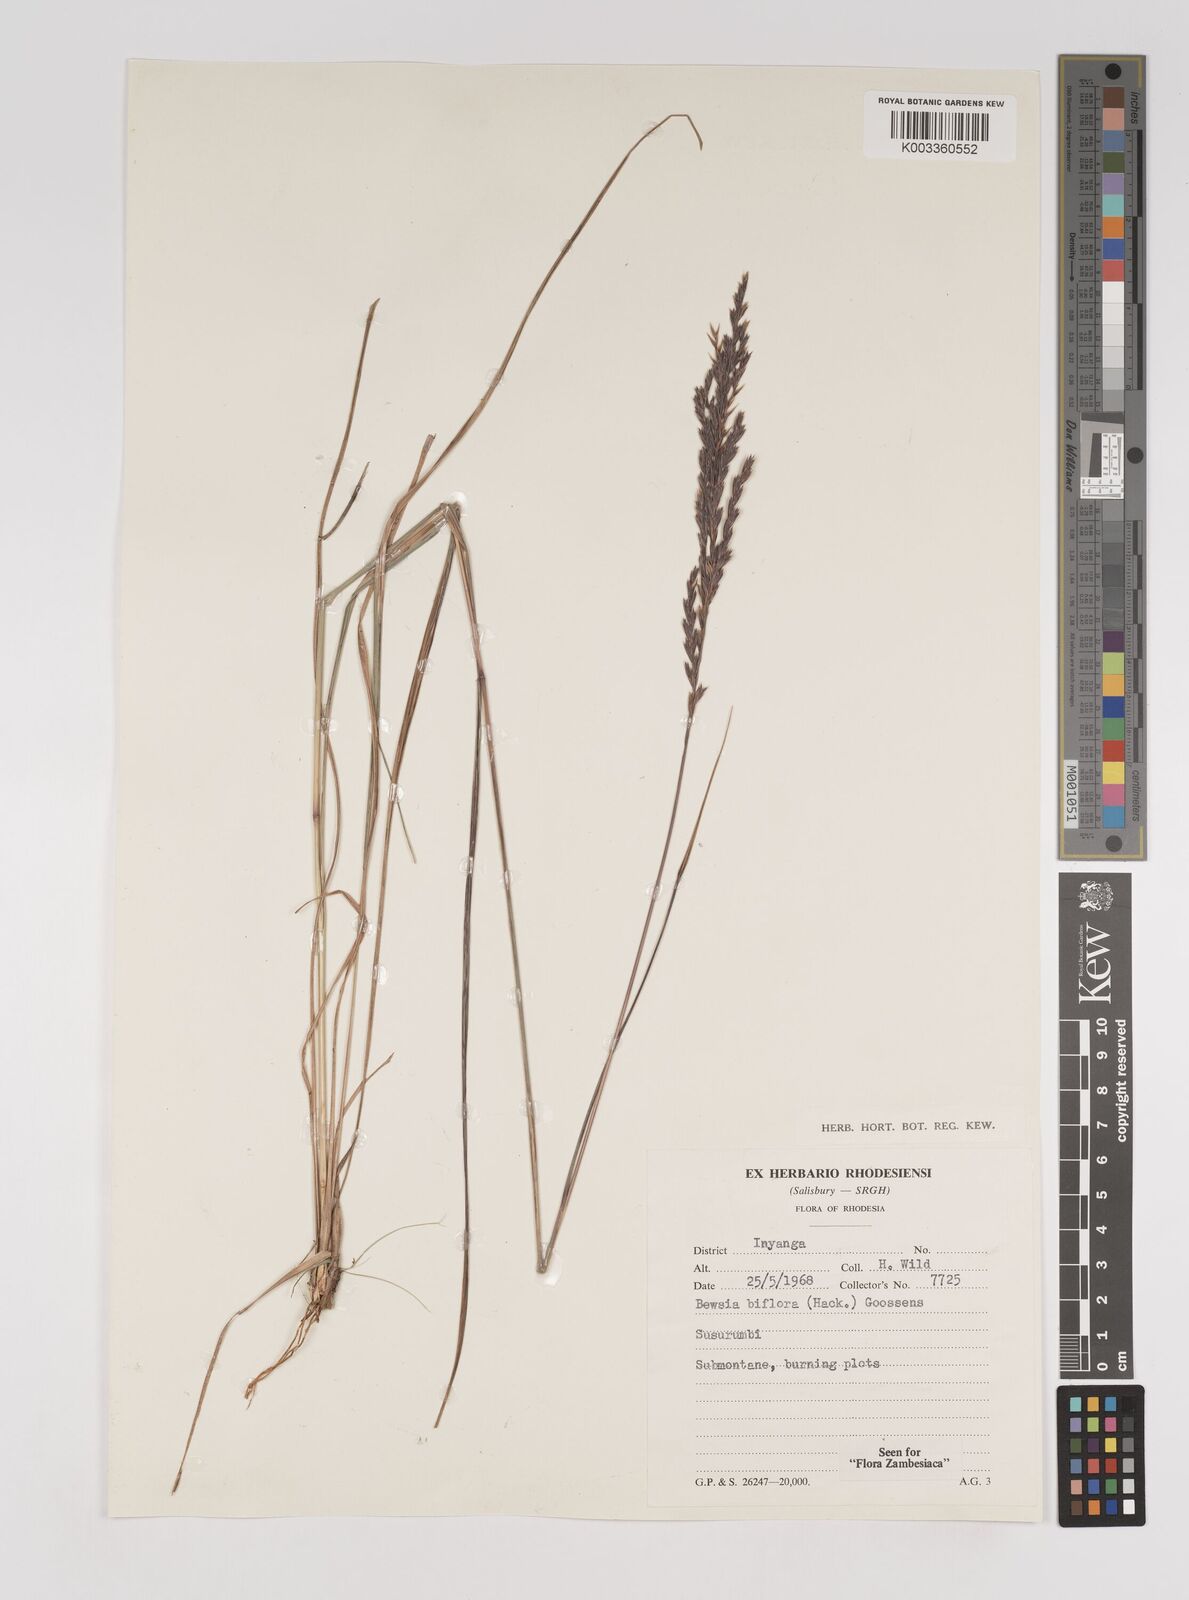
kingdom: Plantae
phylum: Tracheophyta
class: Liliopsida
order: Poales
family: Poaceae
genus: Bewsia
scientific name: Bewsia biflora
